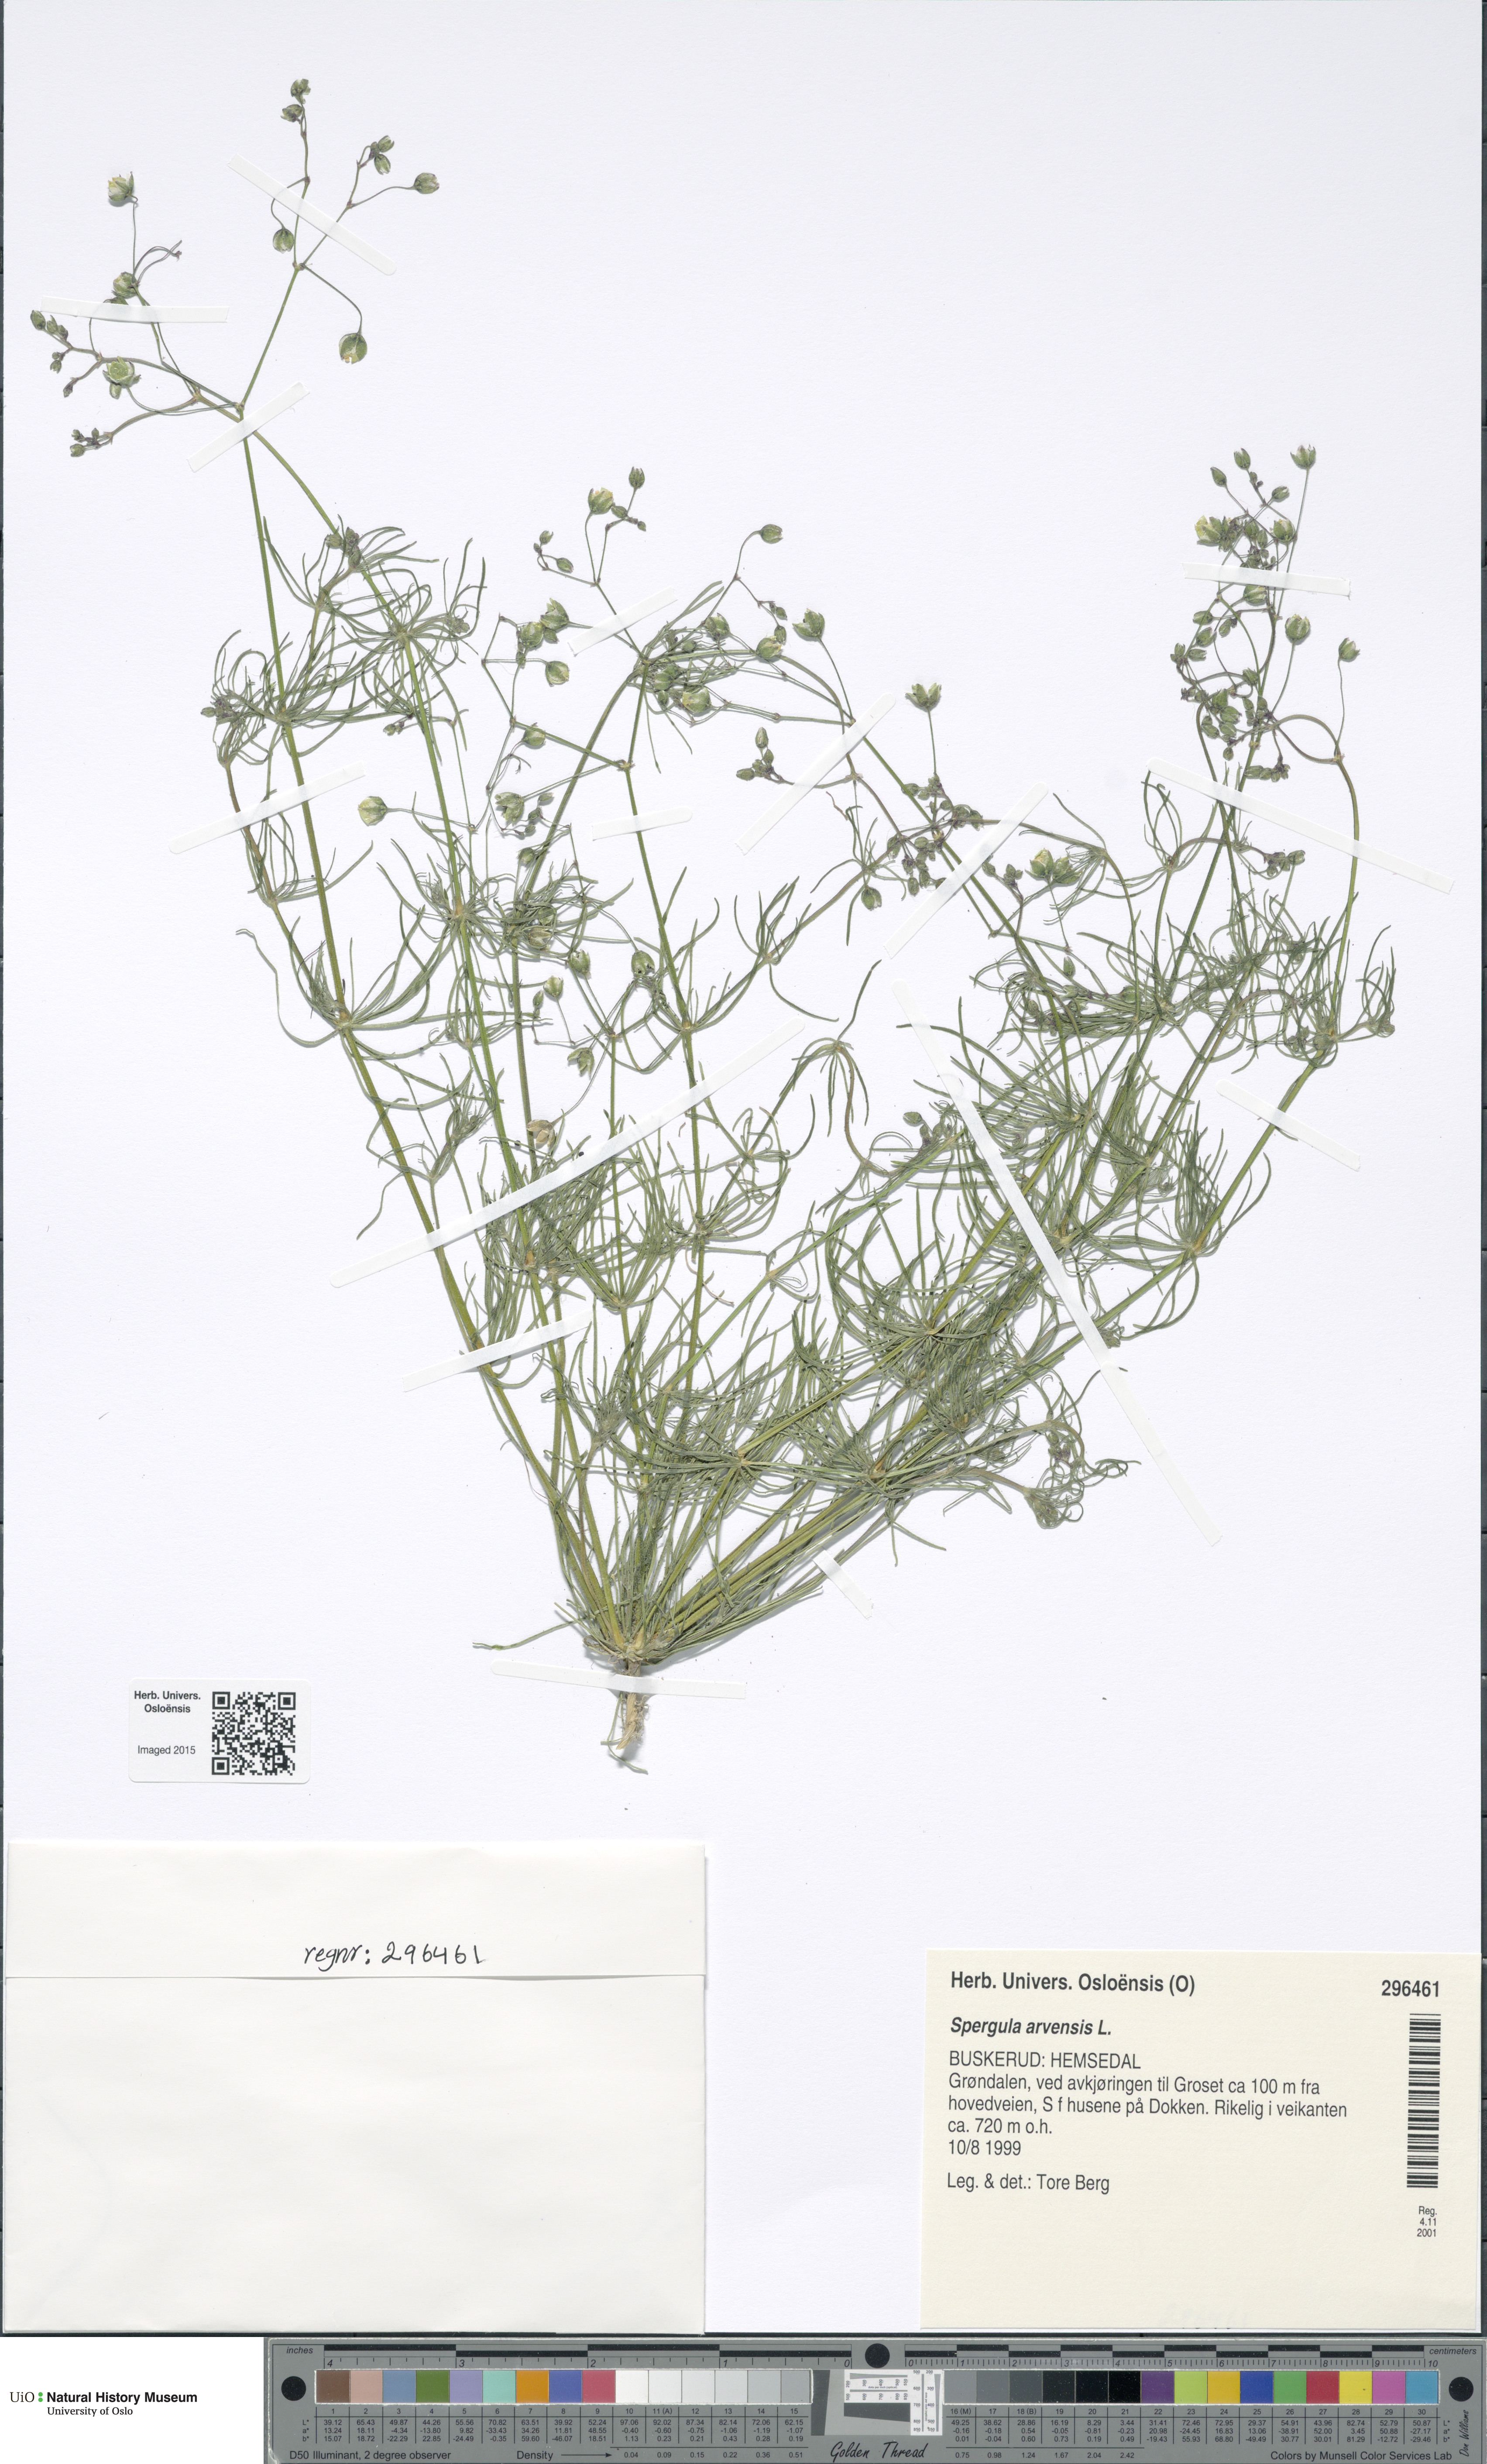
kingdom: Plantae
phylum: Tracheophyta
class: Magnoliopsida
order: Caryophyllales
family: Caryophyllaceae
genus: Spergula
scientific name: Spergula arvensis
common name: Corn spurrey
